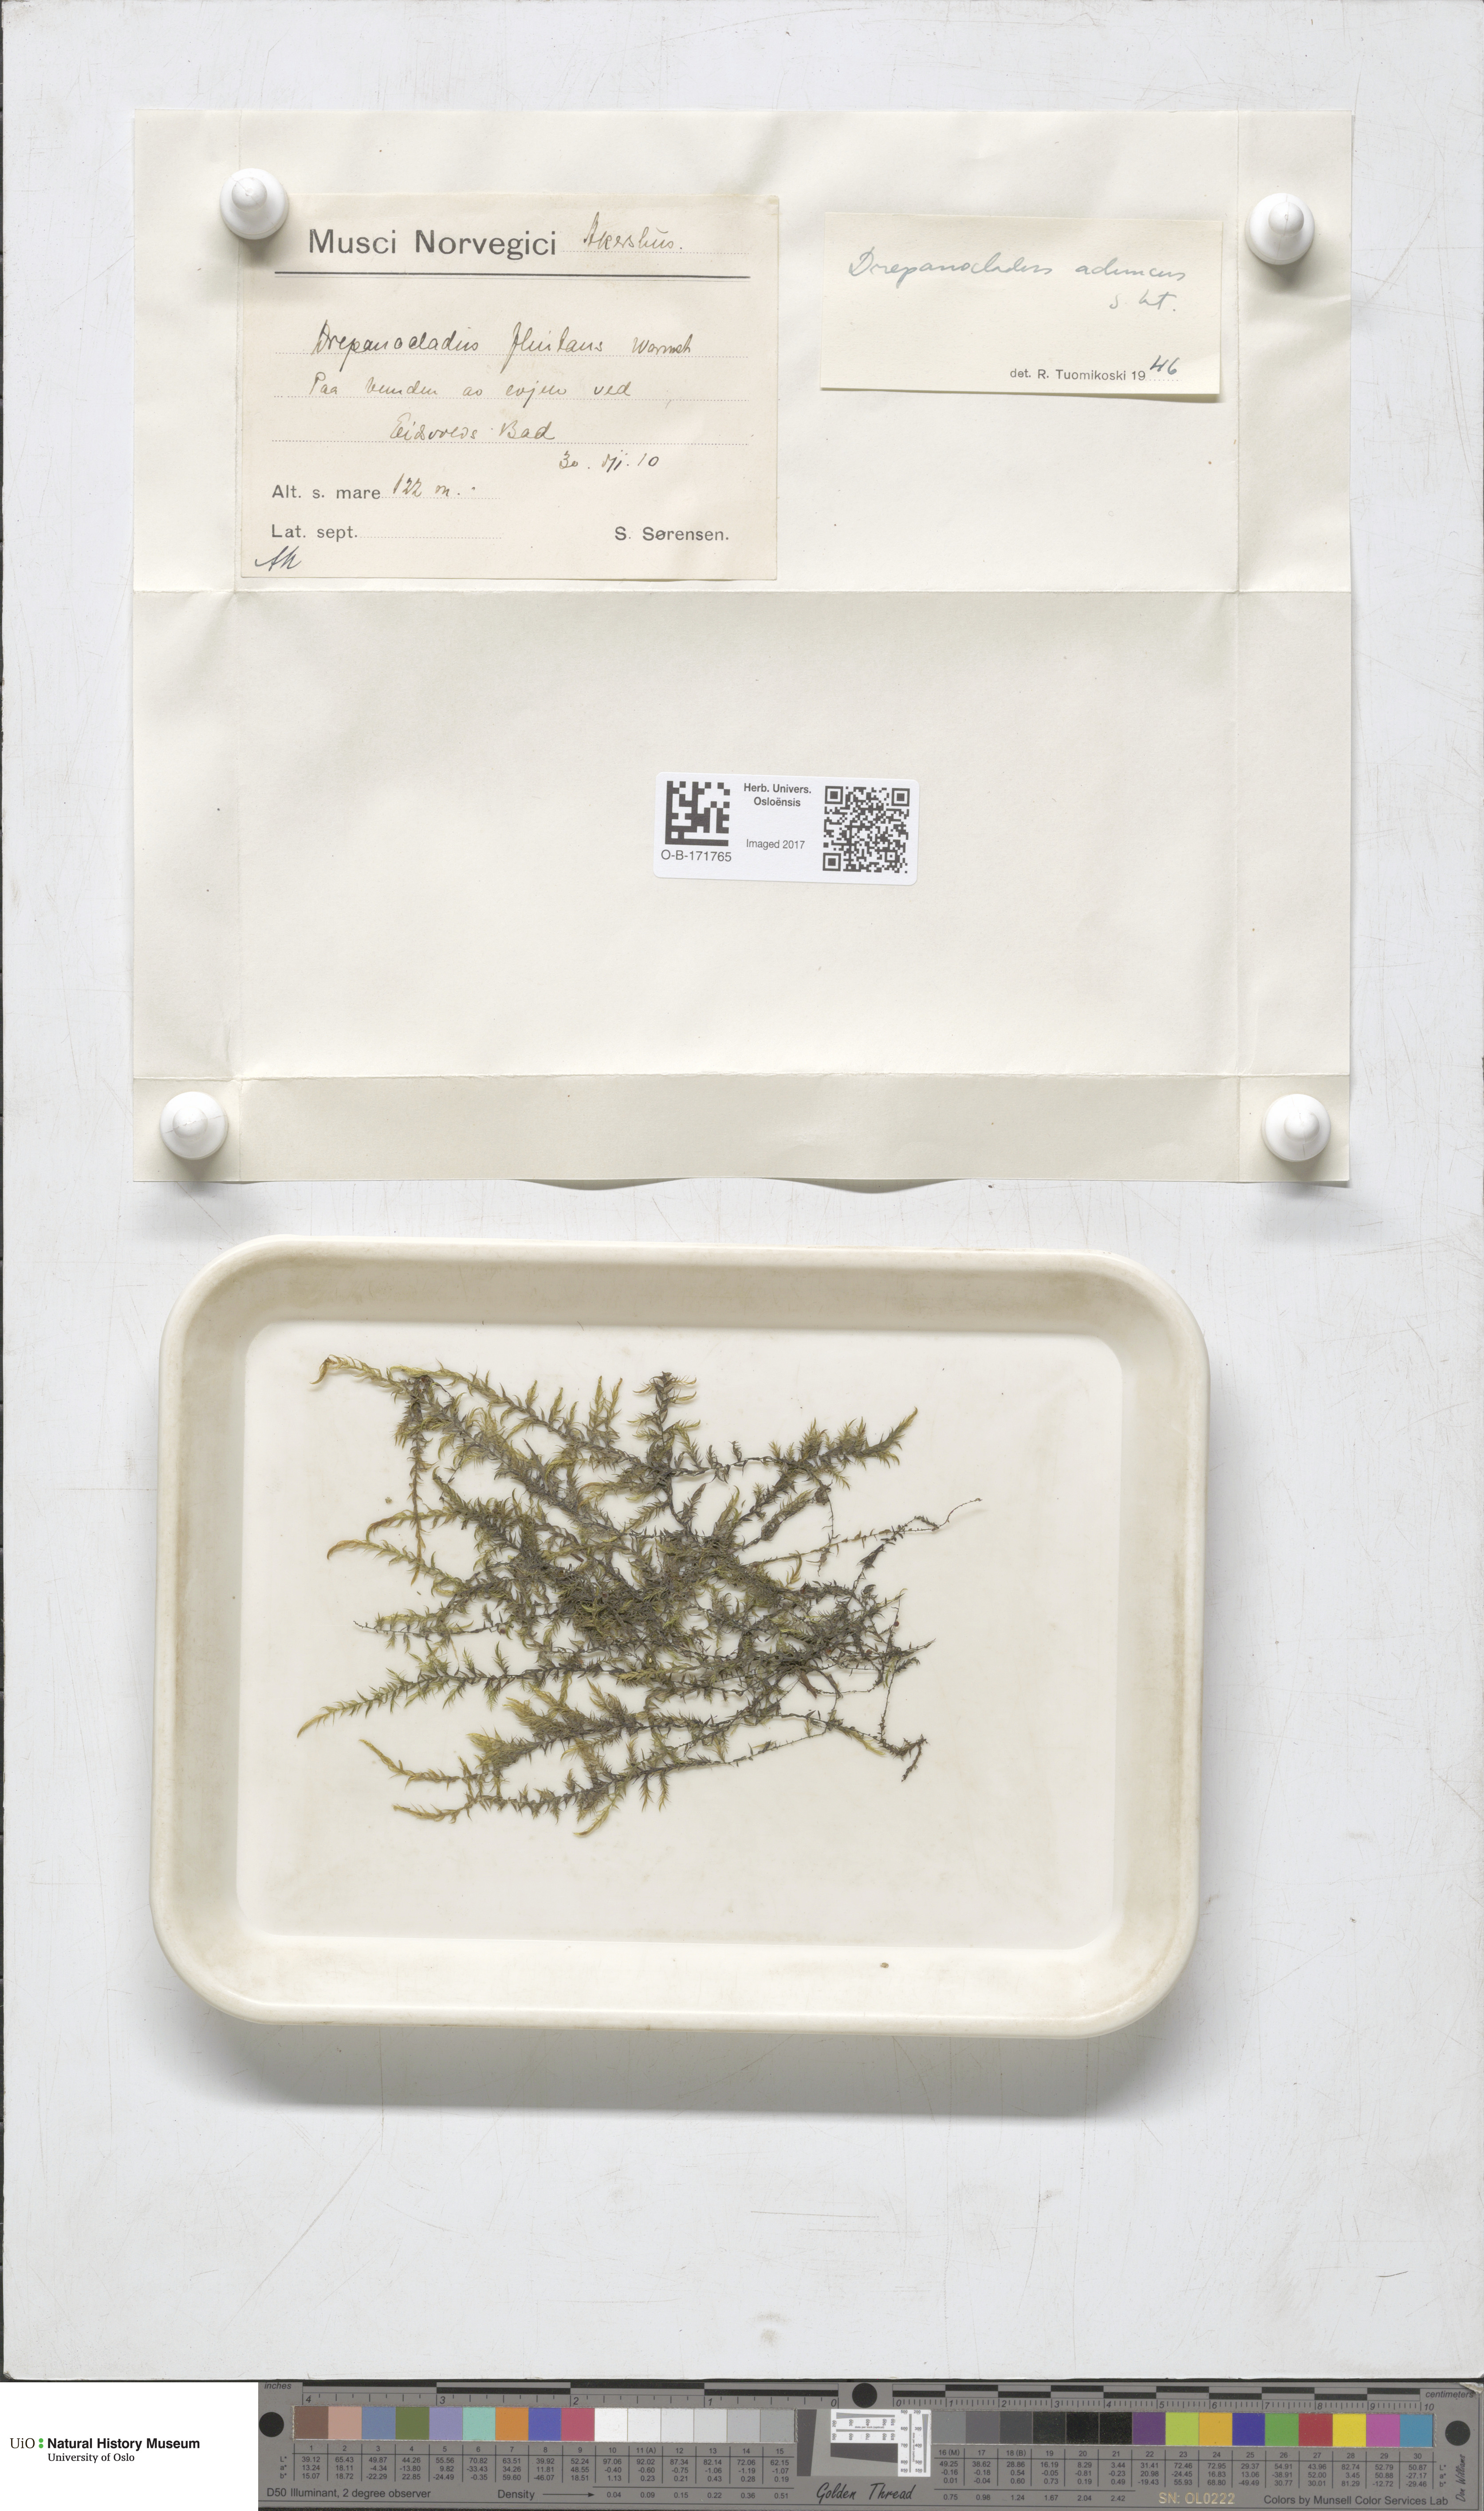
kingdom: Plantae
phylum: Bryophyta
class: Bryopsida
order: Hypnales
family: Amblystegiaceae
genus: Drepanocladus
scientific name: Drepanocladus aduncus
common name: Knieff's hook moss
